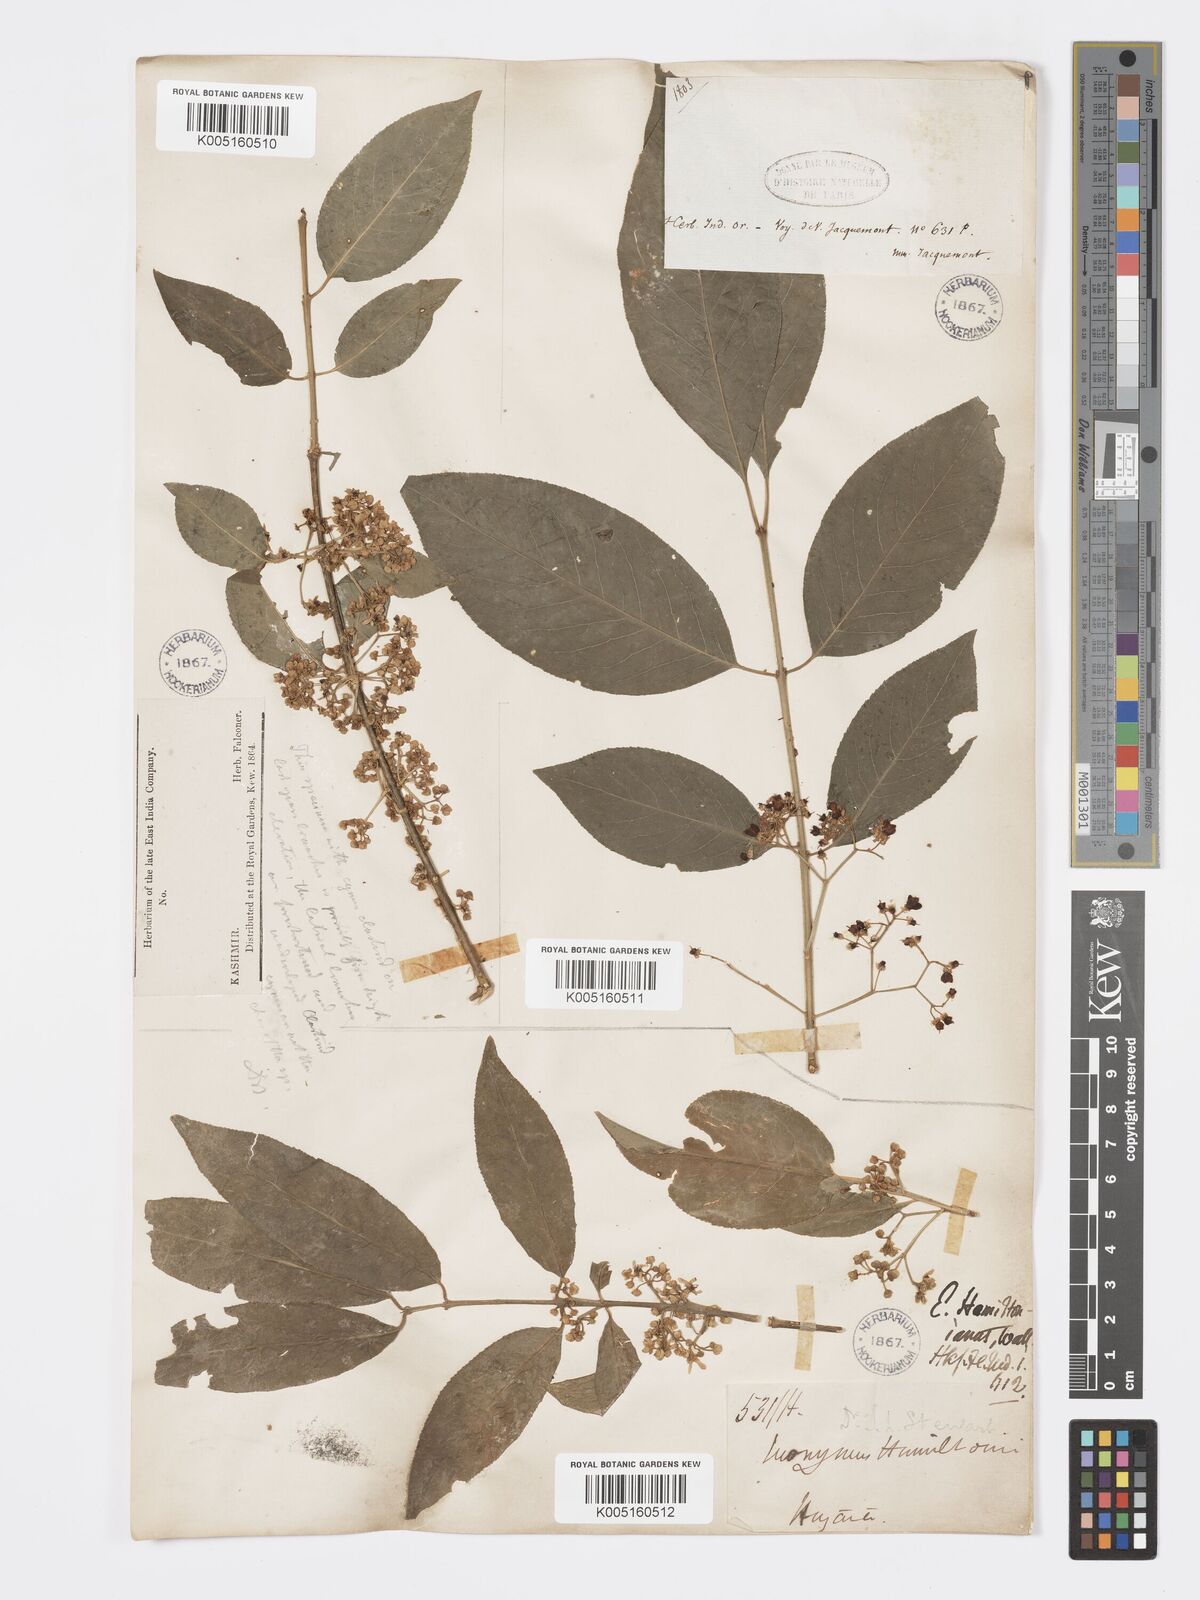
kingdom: Plantae
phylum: Tracheophyta
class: Magnoliopsida
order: Celastrales
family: Celastraceae
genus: Euonymus
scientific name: Euonymus
